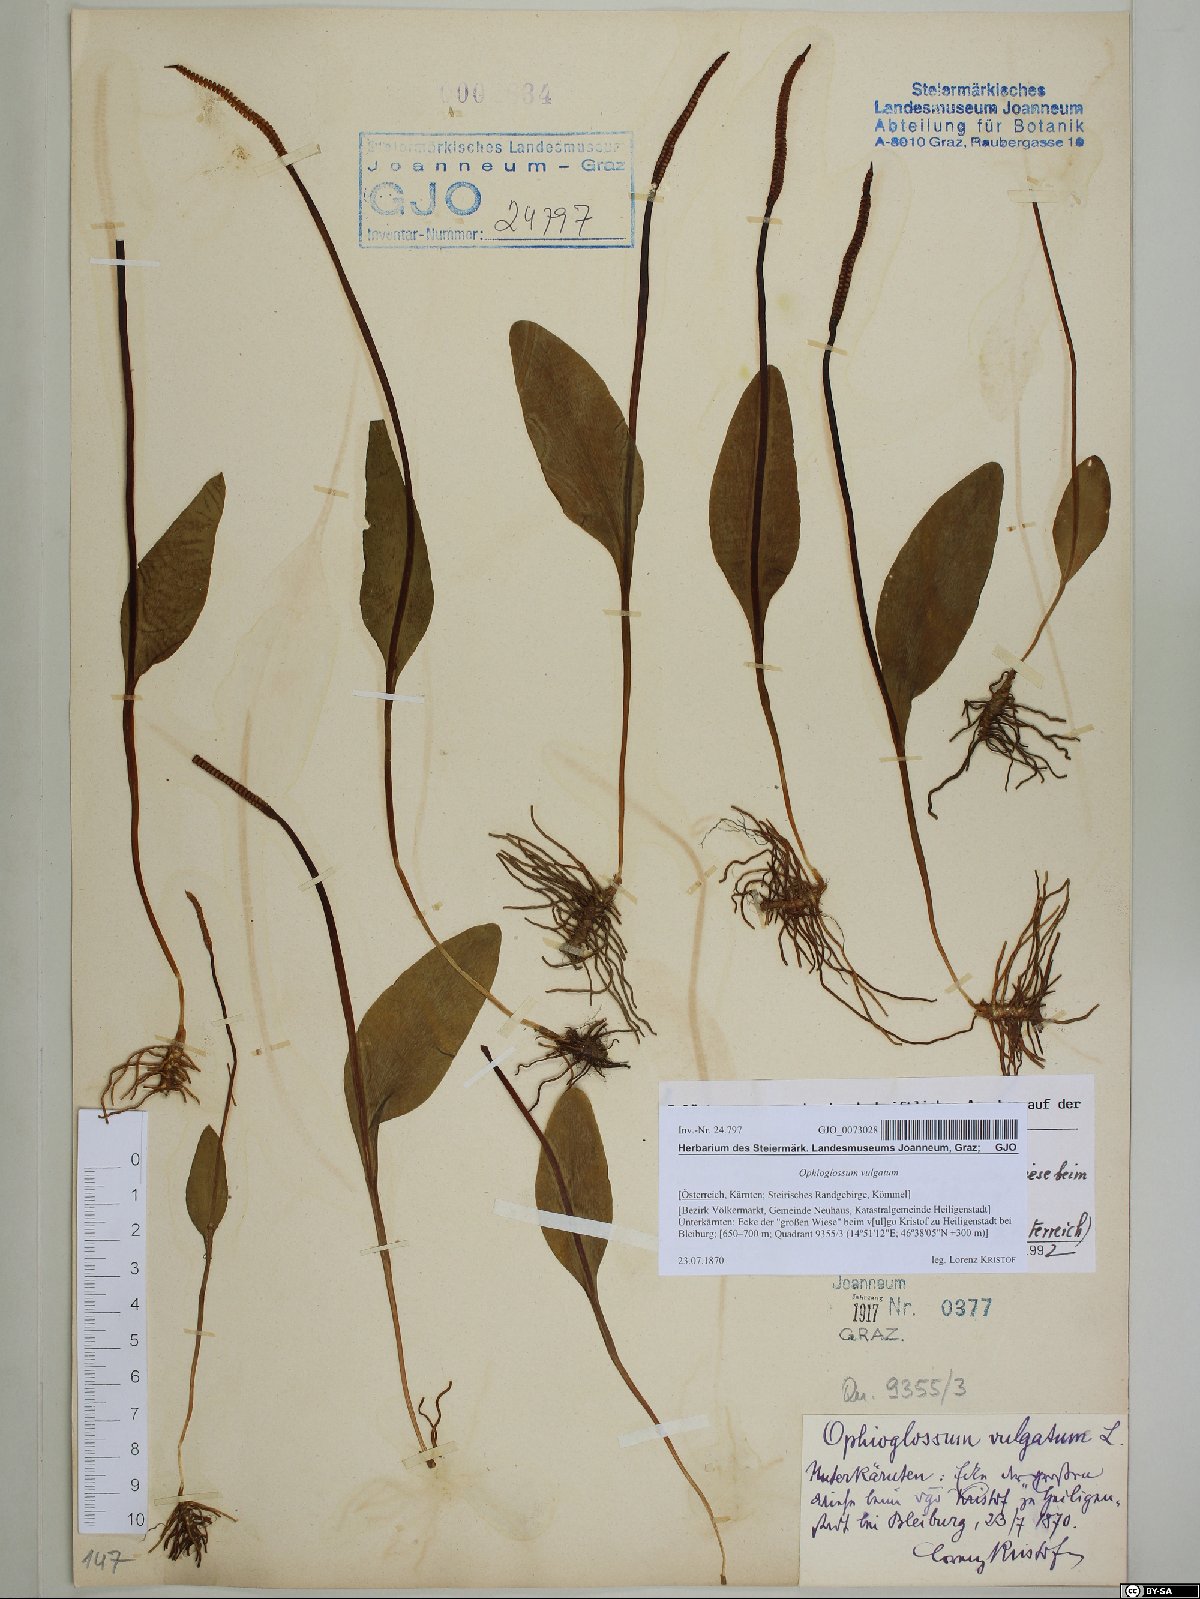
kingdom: Plantae
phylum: Tracheophyta
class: Polypodiopsida
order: Ophioglossales
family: Ophioglossaceae
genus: Ophioglossum
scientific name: Ophioglossum vulgatum
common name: Adder's-tongue
